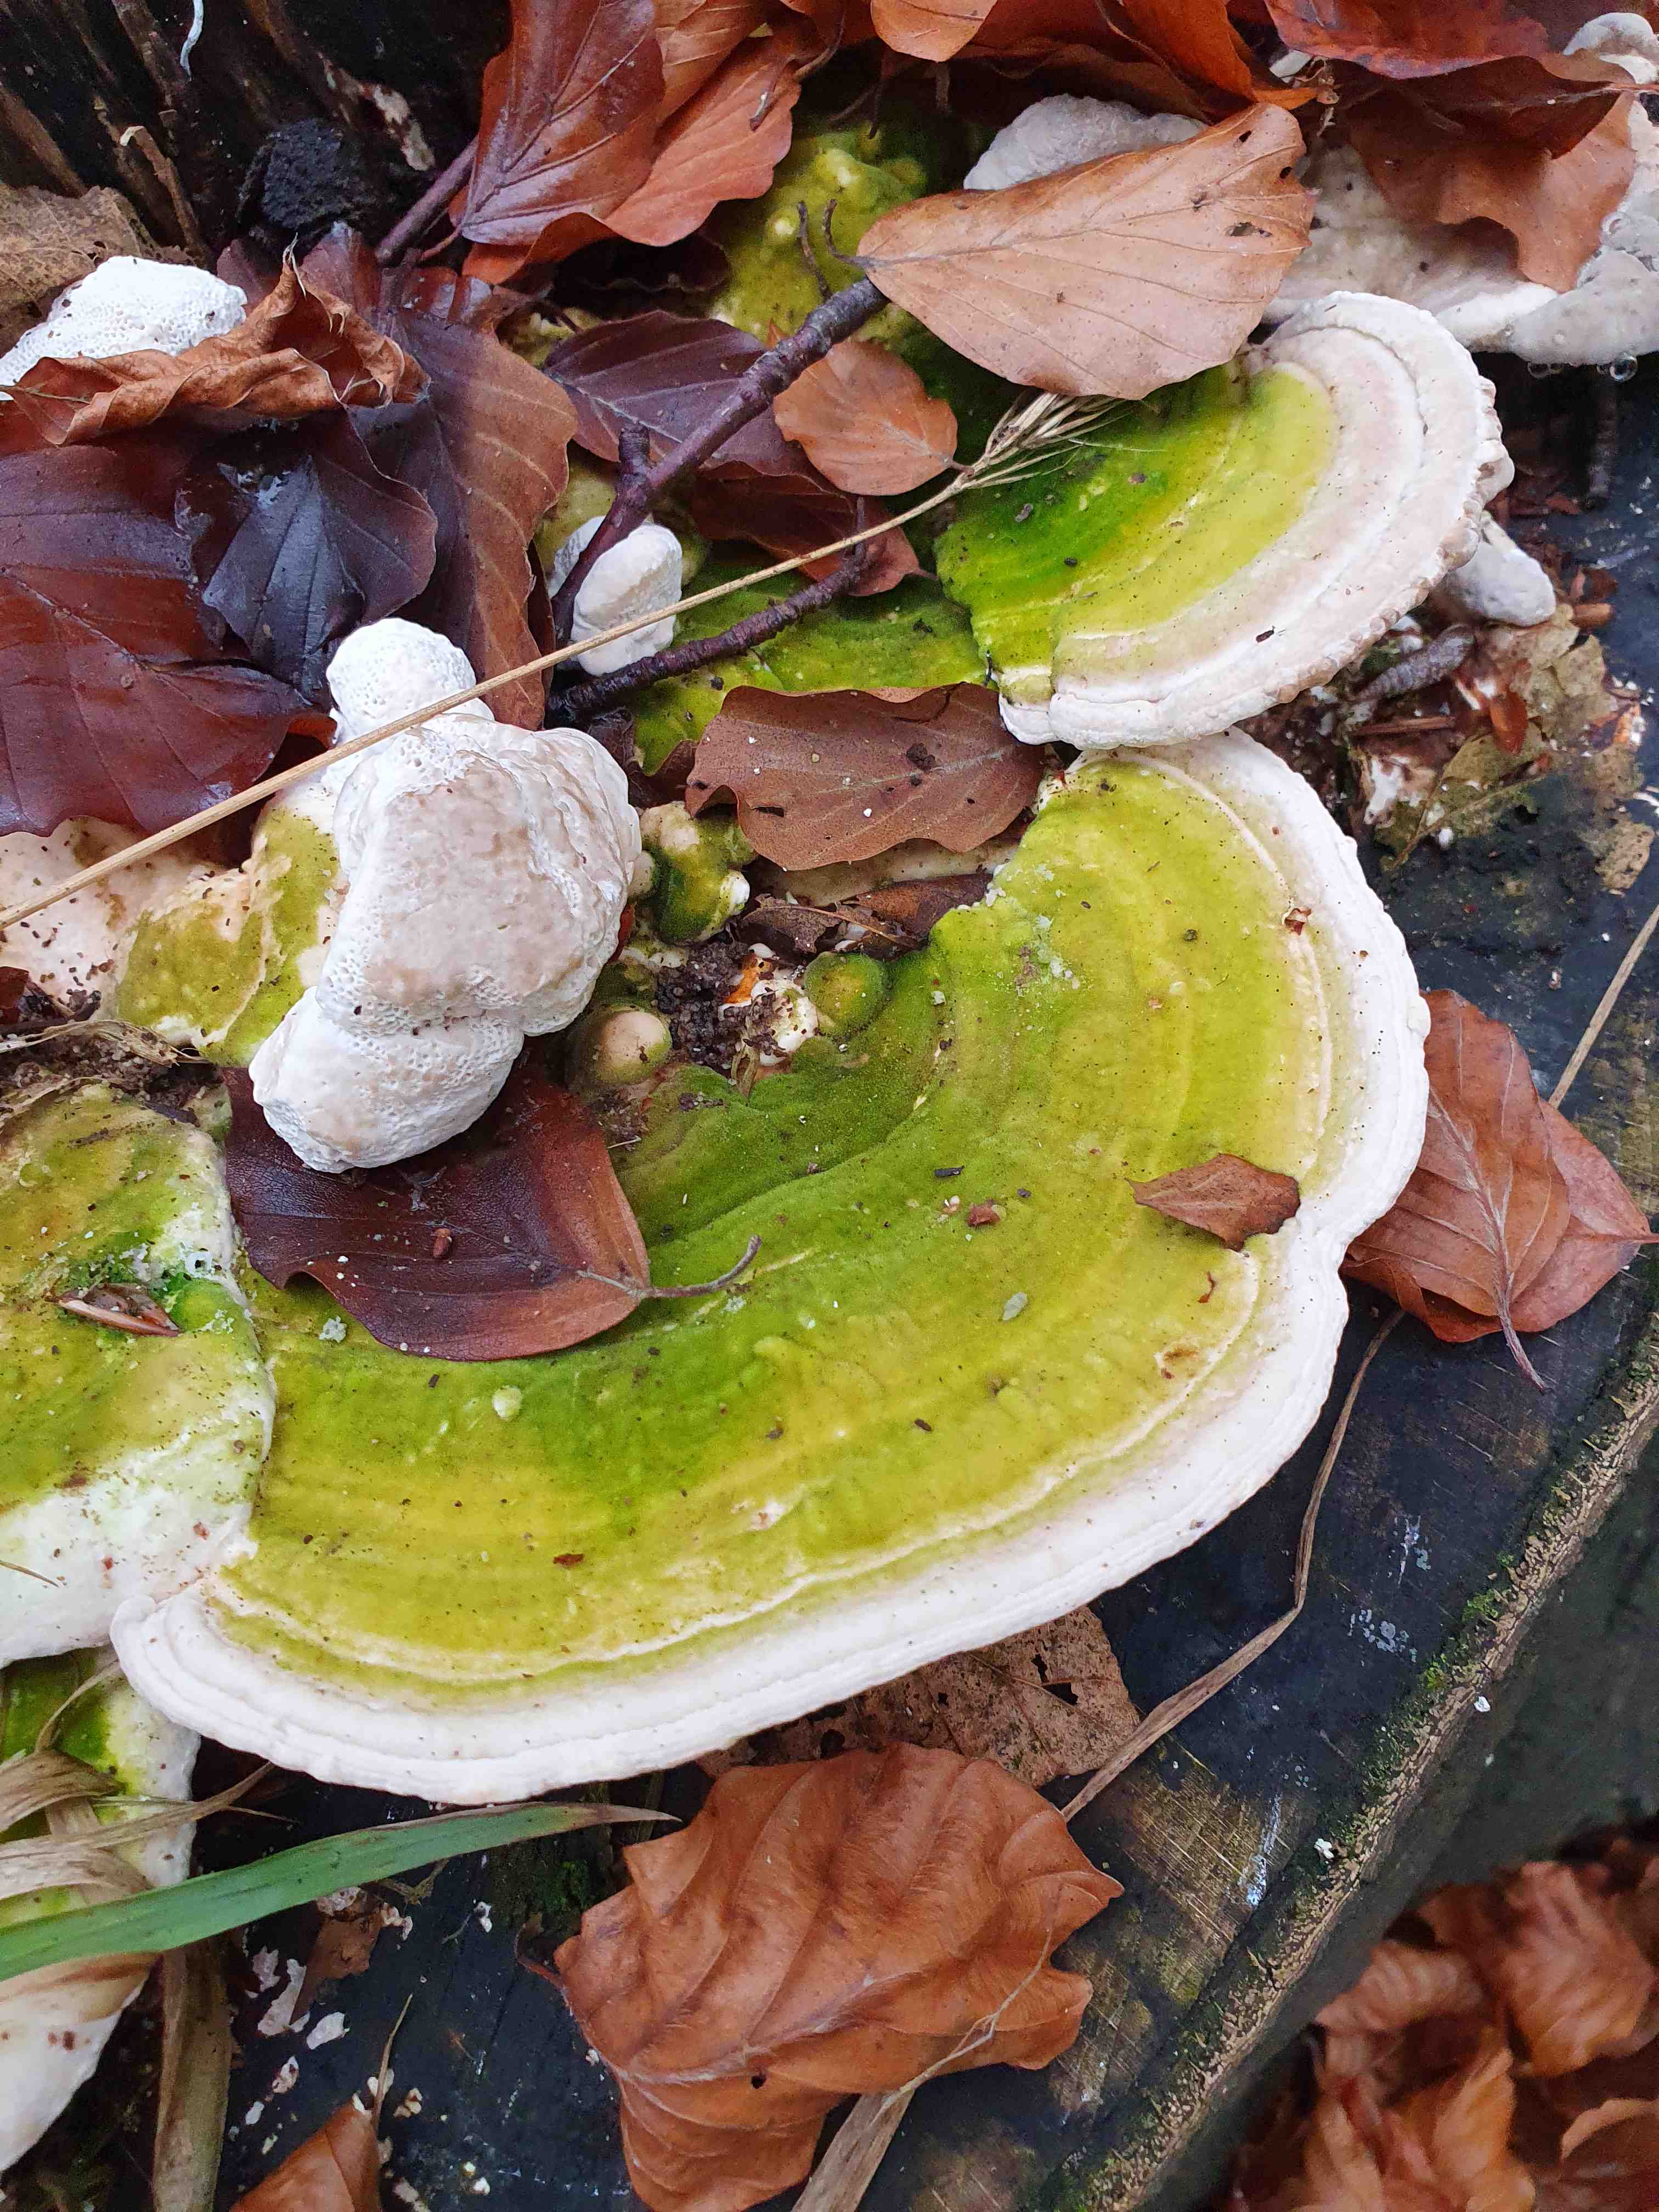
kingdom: Fungi
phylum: Basidiomycota
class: Agaricomycetes
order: Polyporales
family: Polyporaceae
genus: Trametes
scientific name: Trametes gibbosa
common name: puklet læderporesvamp
